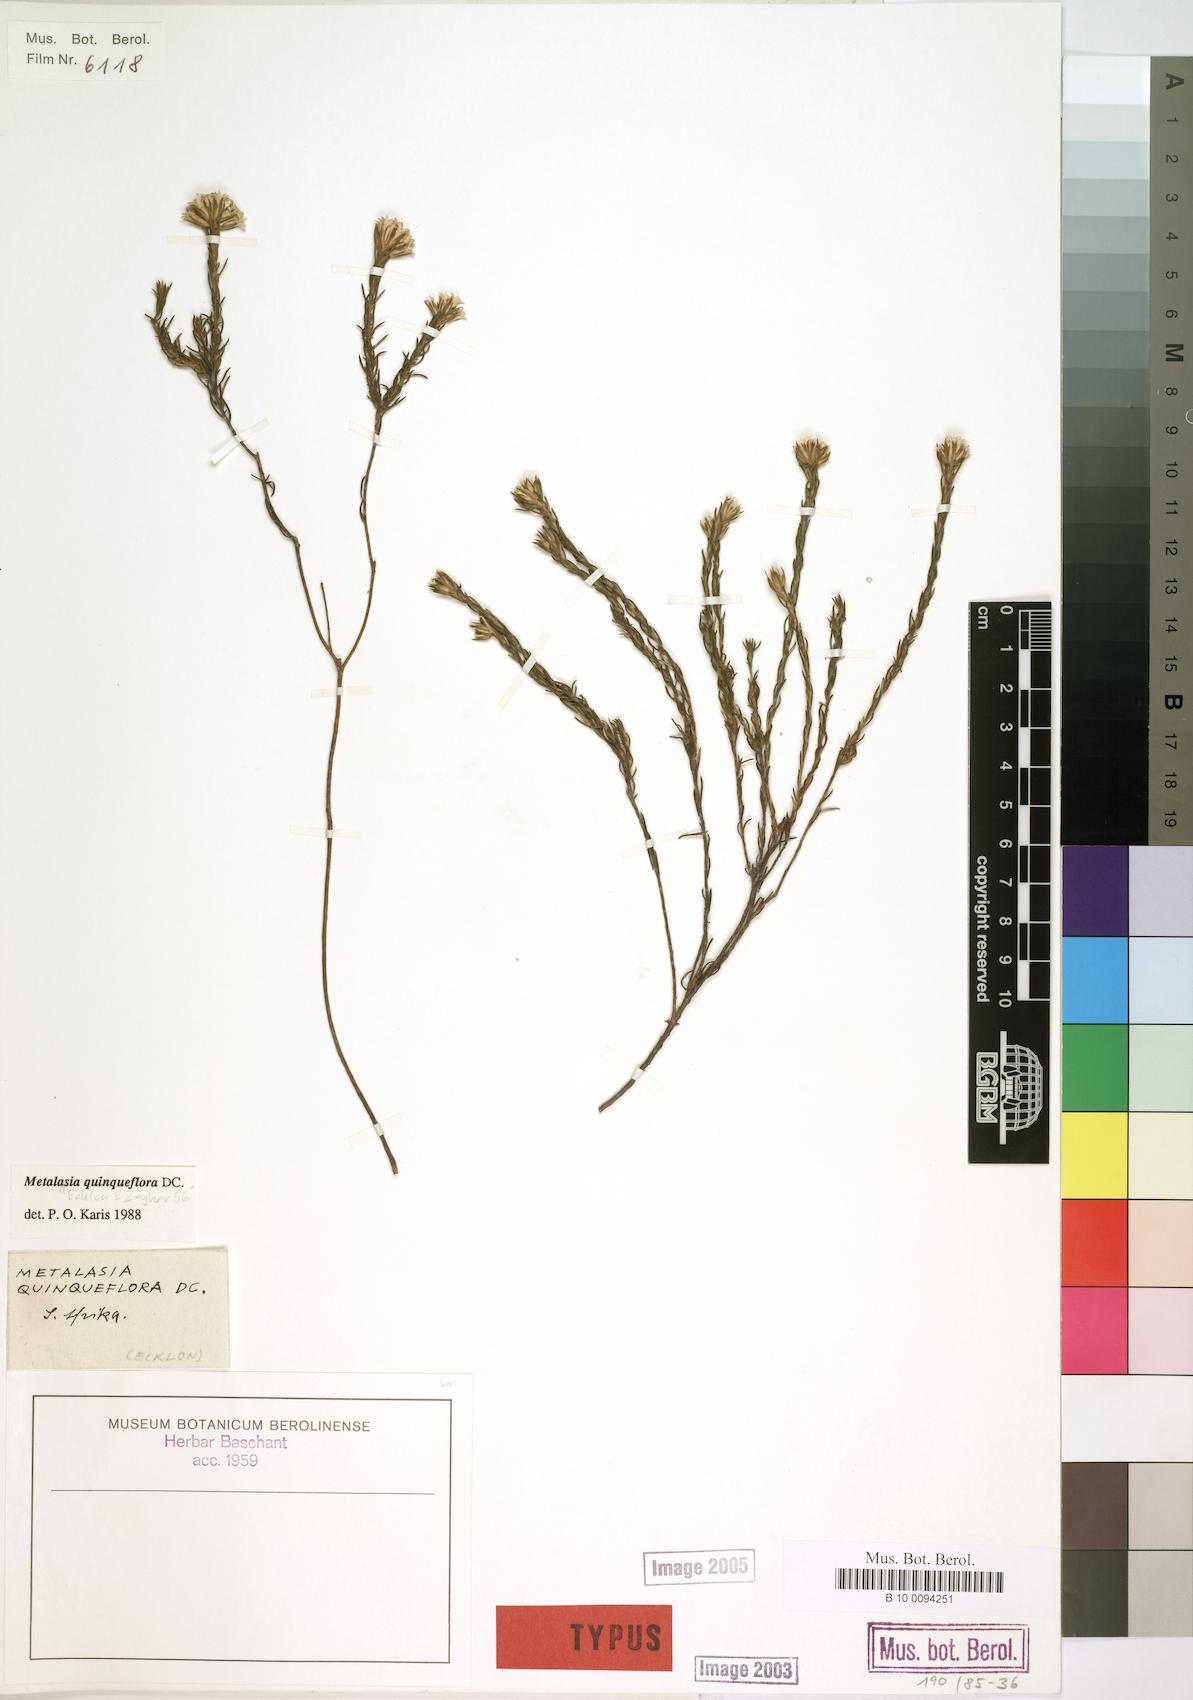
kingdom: Plantae
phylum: Tracheophyta
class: Magnoliopsida
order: Asterales
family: Asteraceae
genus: Metalasia
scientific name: Metalasia quinqueflora
